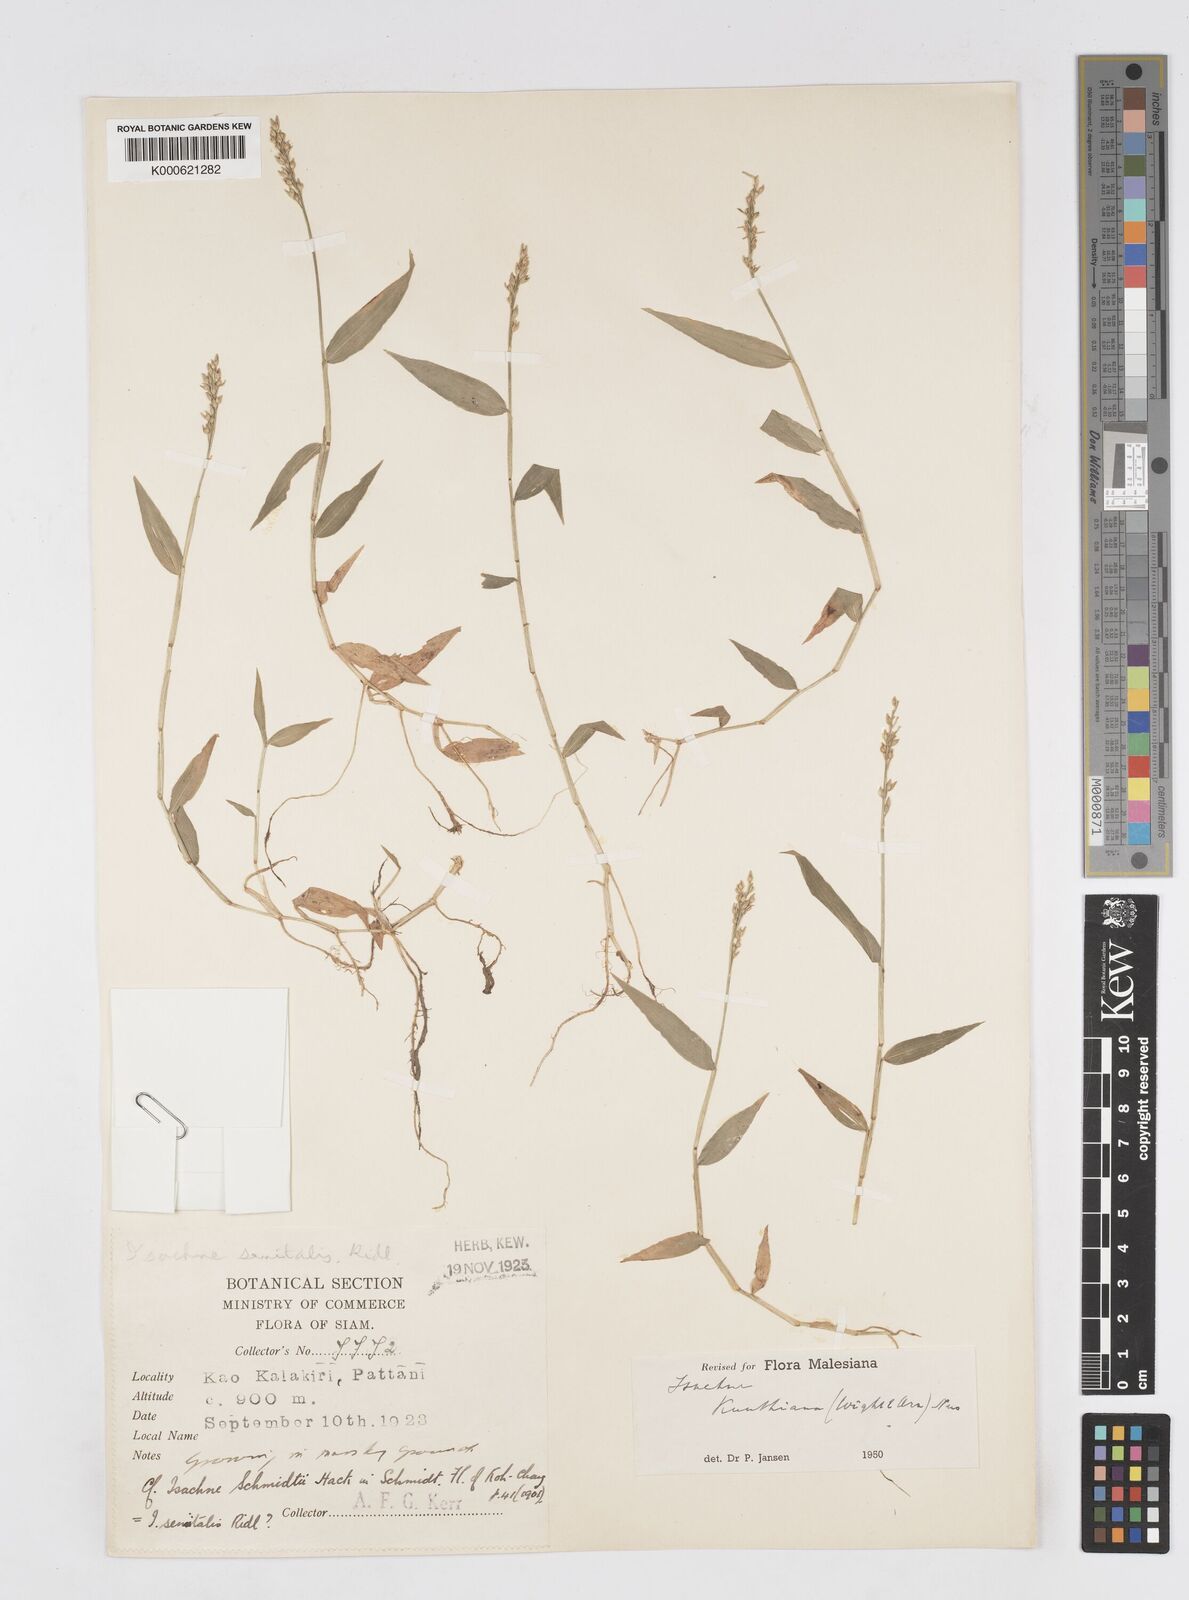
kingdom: Plantae
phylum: Tracheophyta
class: Liliopsida
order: Poales
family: Poaceae
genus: Isachne
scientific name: Isachne schmidtii
